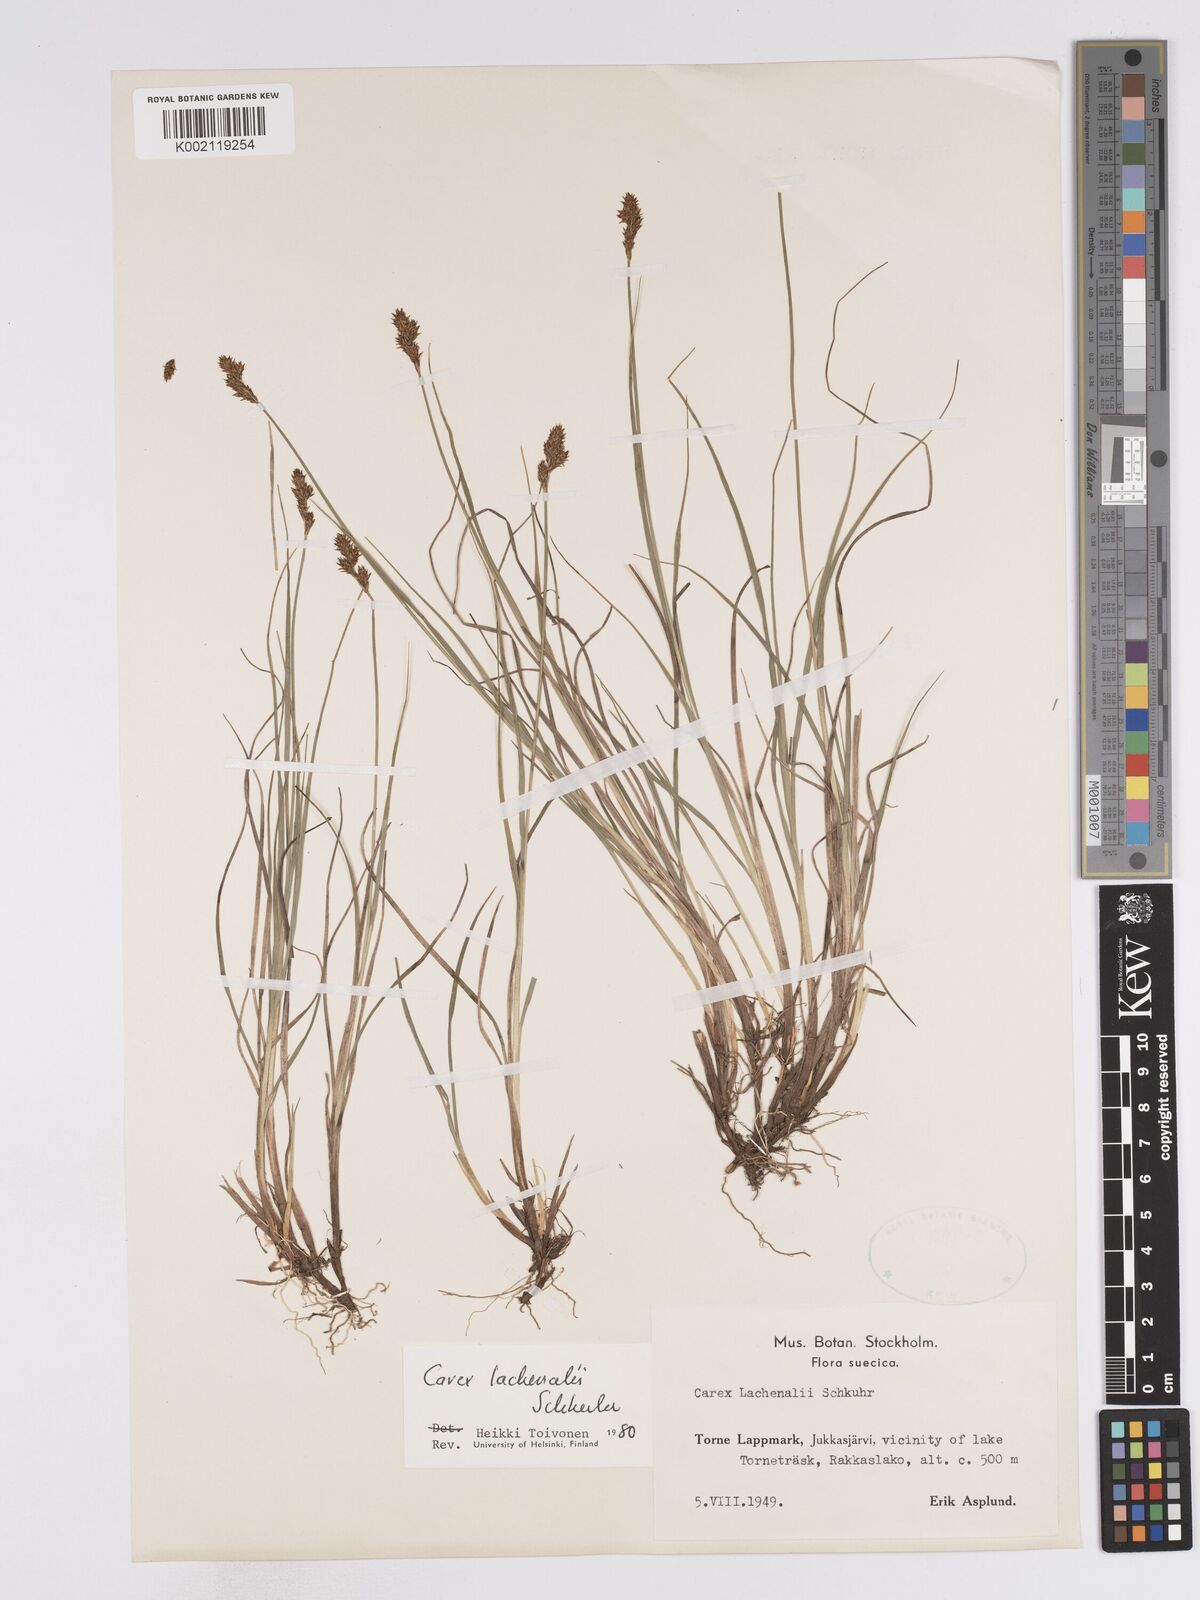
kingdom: Plantae
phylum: Tracheophyta
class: Liliopsida
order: Poales
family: Cyperaceae
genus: Carex
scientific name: Carex lachenalii
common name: Hare's-foot sedge
